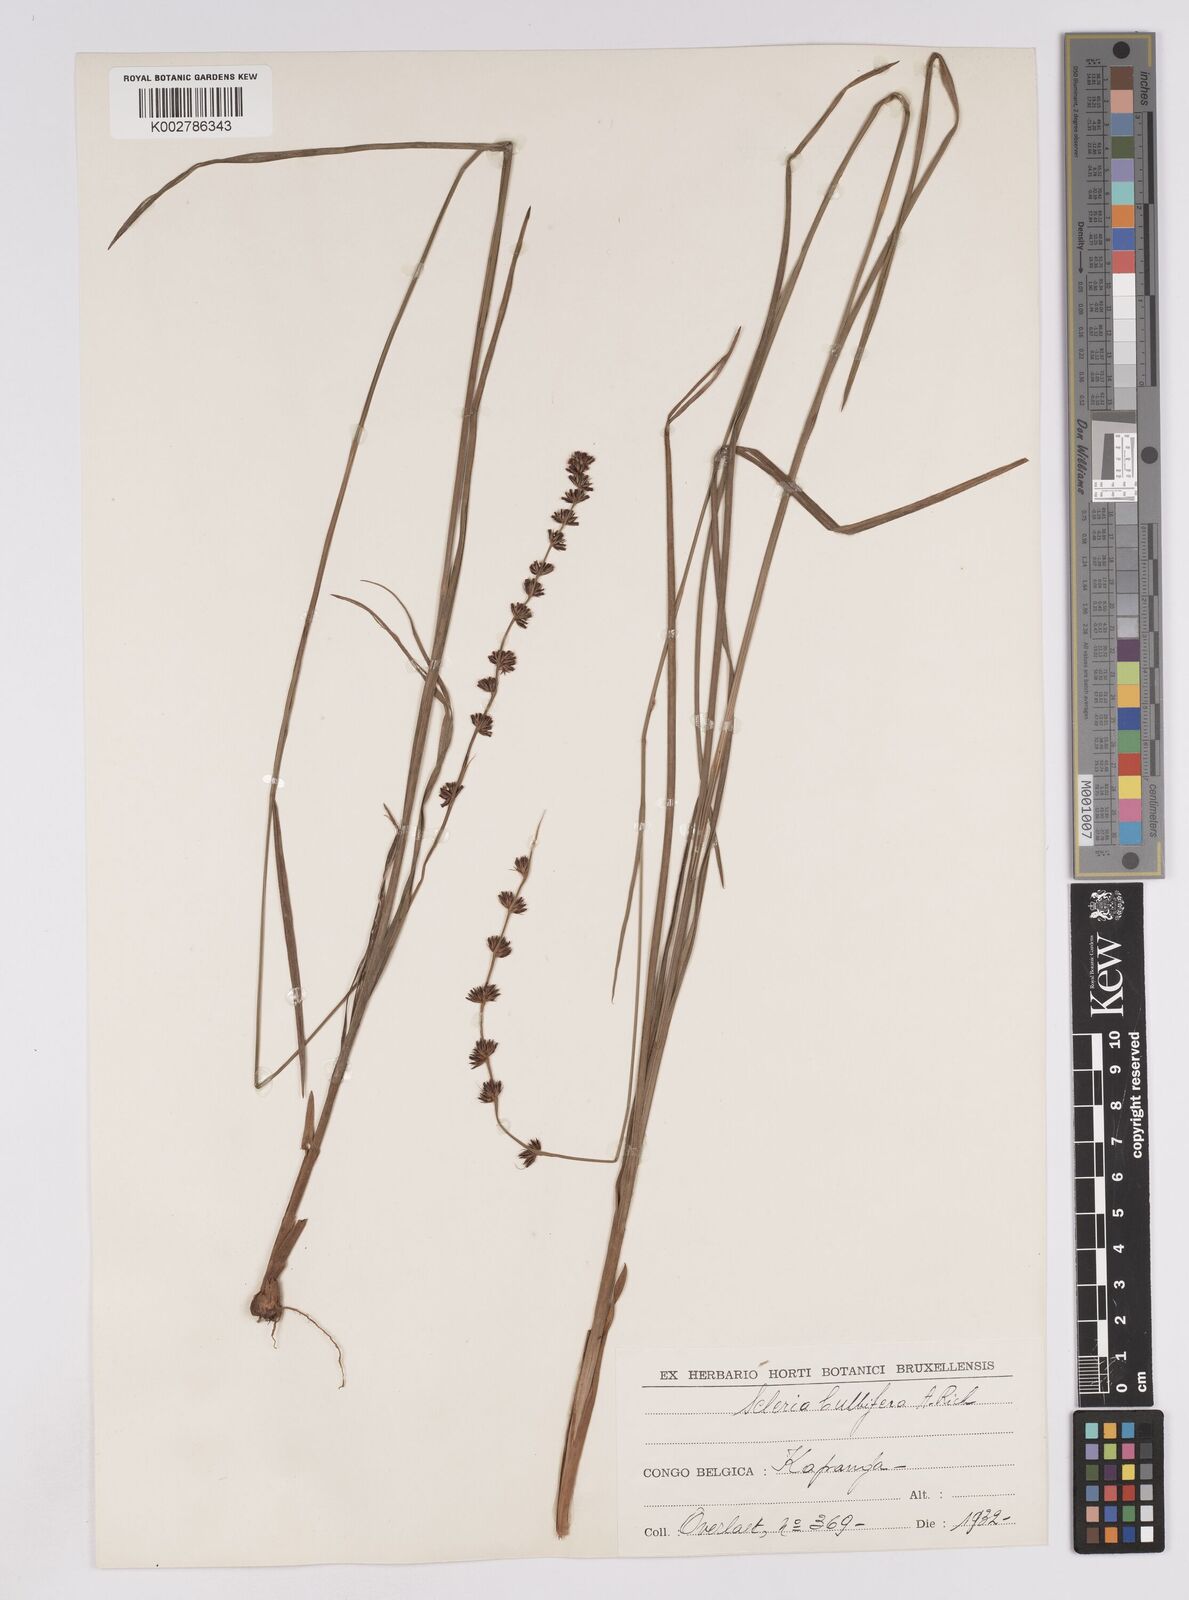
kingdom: Plantae
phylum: Tracheophyta
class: Liliopsida
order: Poales
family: Cyperaceae
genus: Scleria
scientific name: Scleria bulbifera
